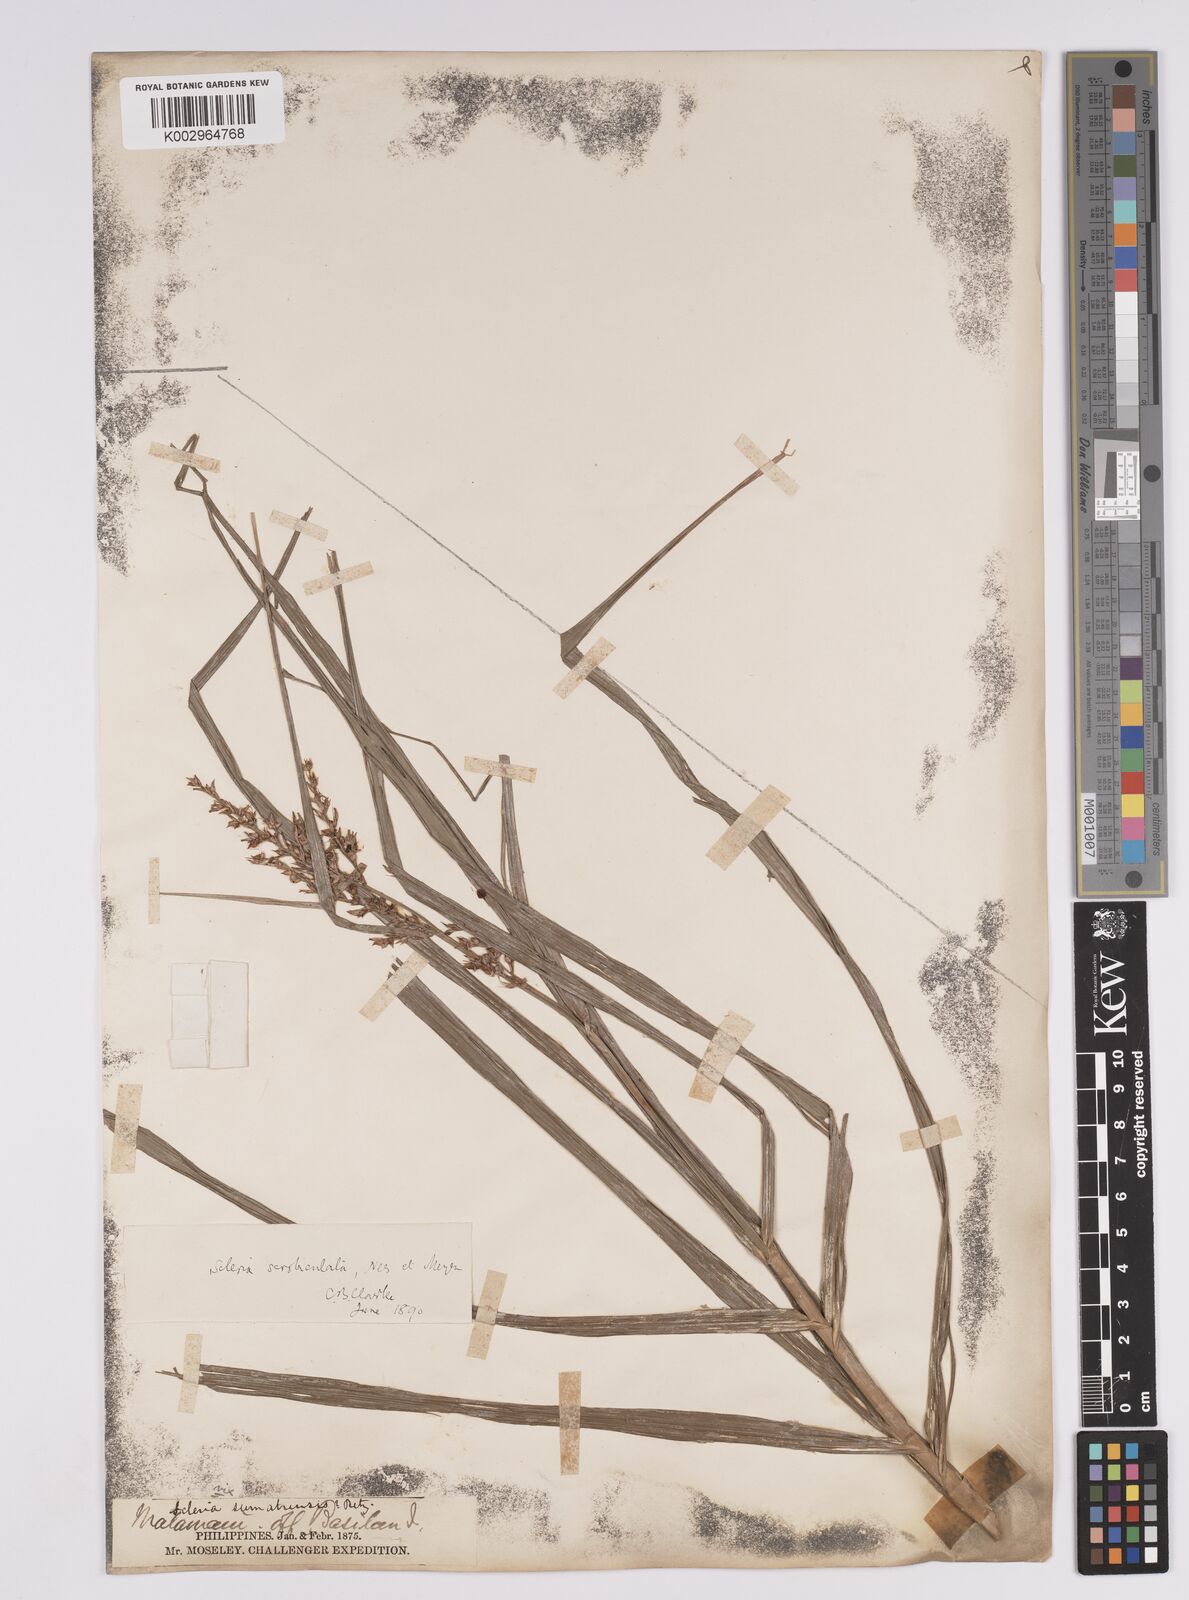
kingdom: Plantae
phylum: Tracheophyta
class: Liliopsida
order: Poales
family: Cyperaceae
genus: Scleria
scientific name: Scleria scrobiculata
